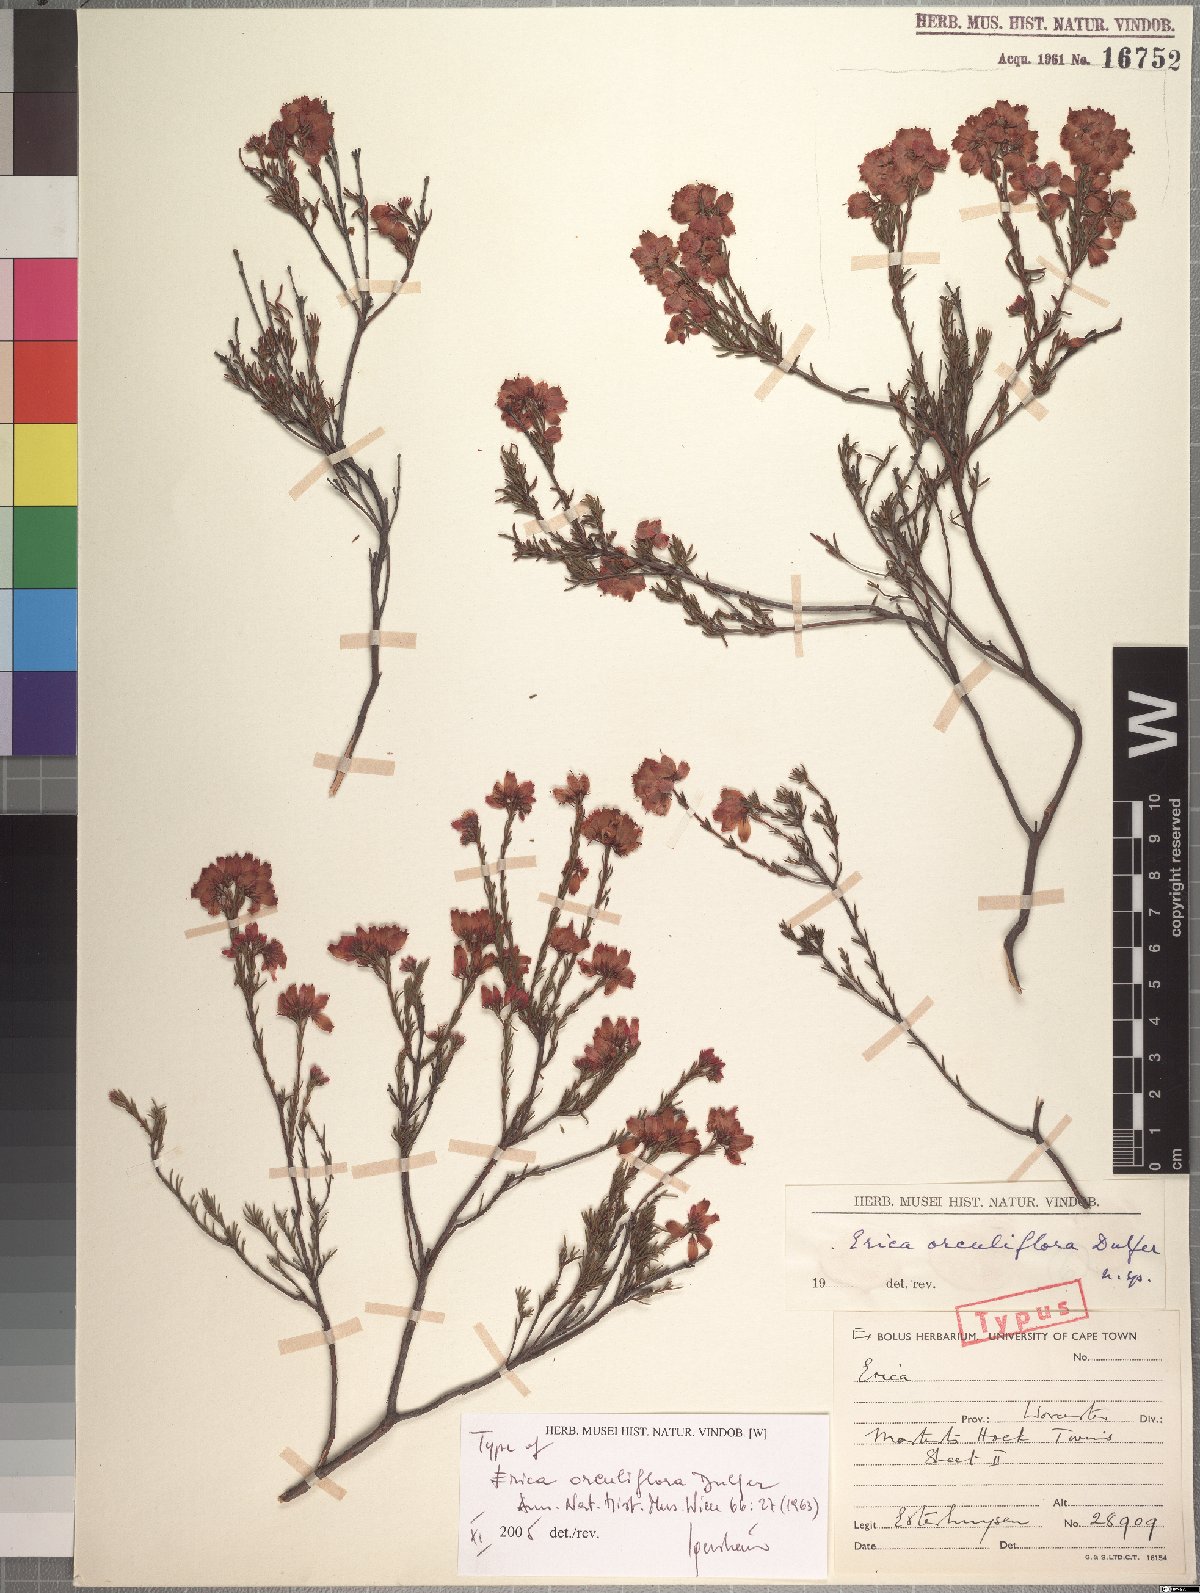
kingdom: Plantae
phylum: Tracheophyta
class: Magnoliopsida
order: Ericales
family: Ericaceae
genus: Erica
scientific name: Erica orculiflora
